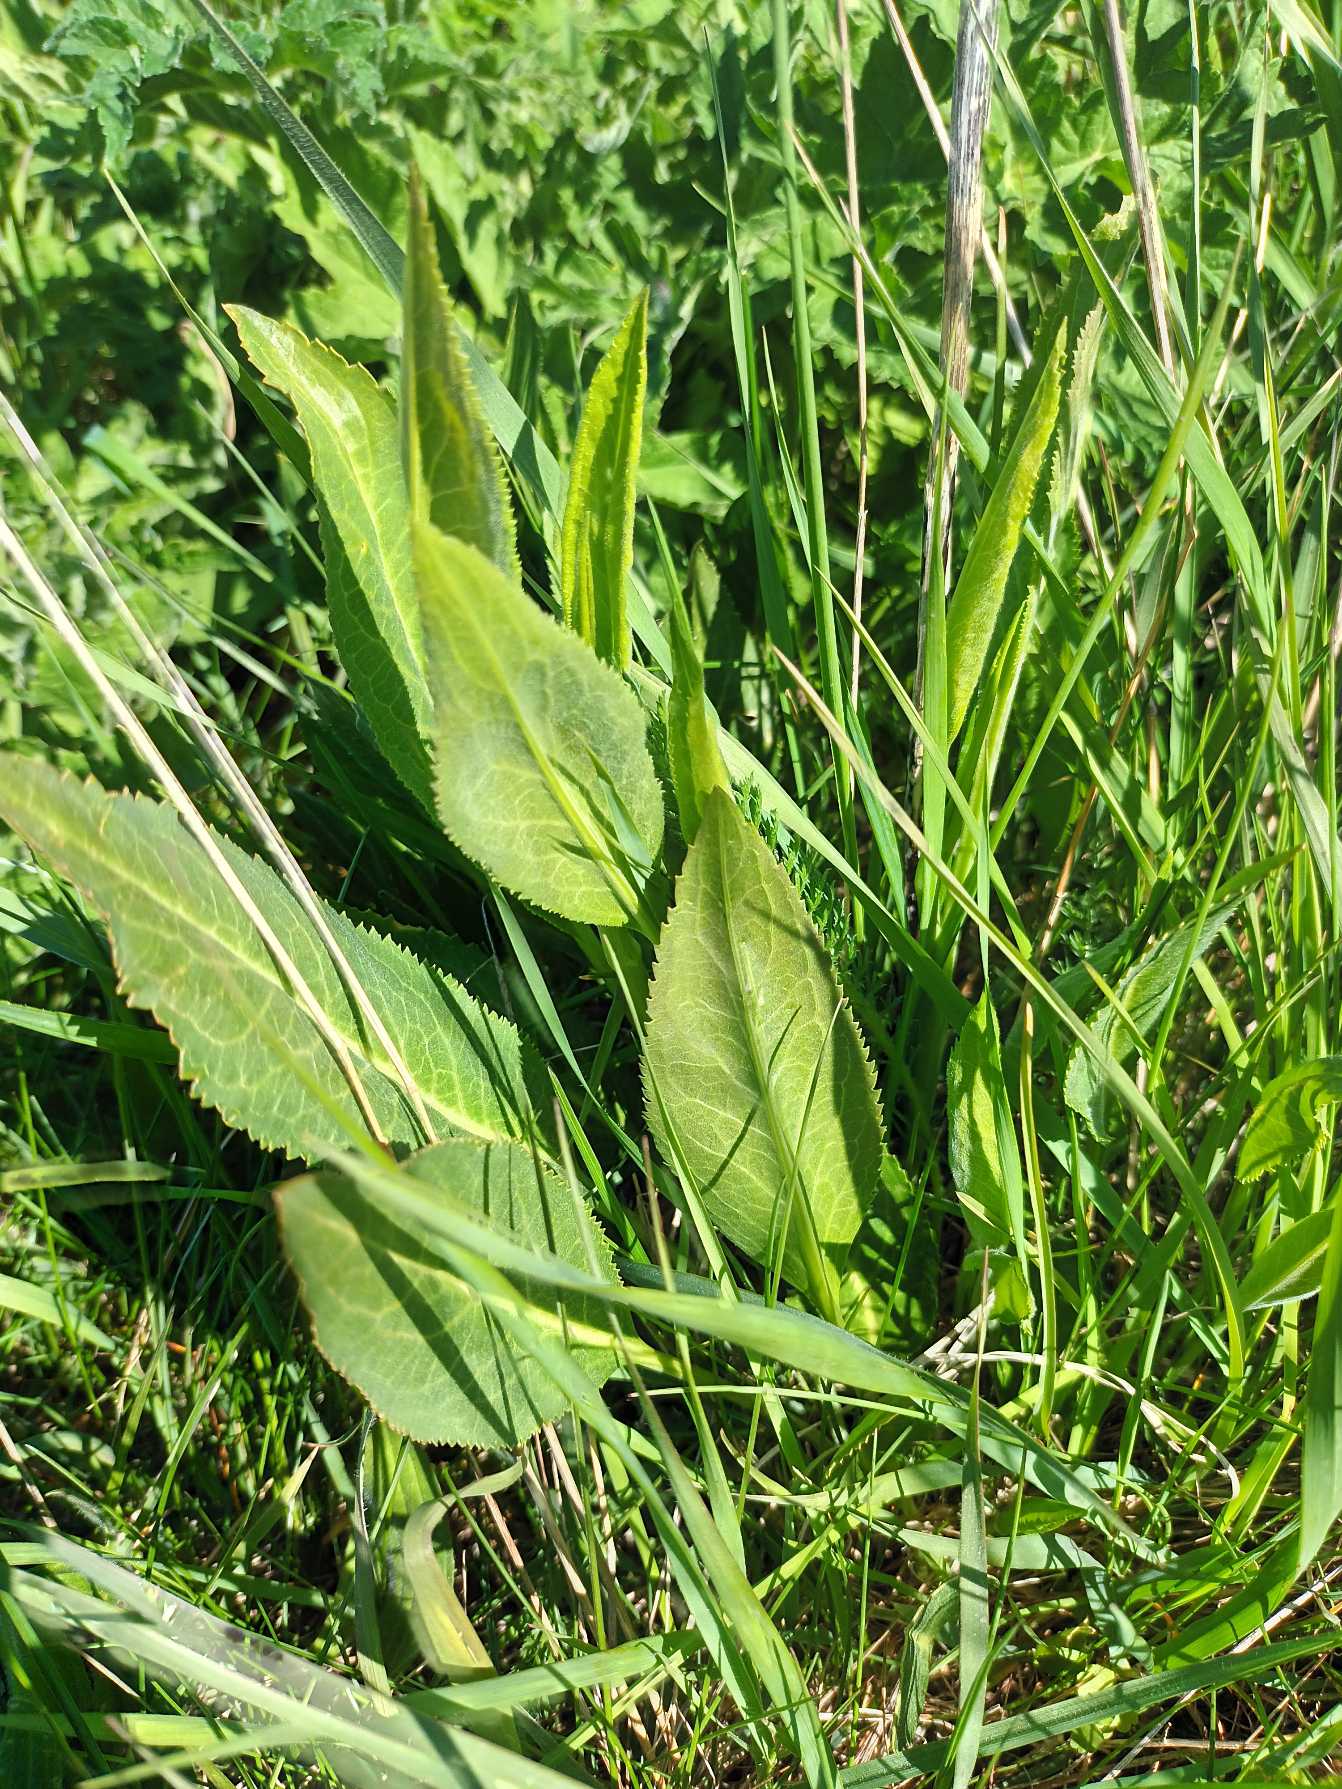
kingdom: Plantae
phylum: Tracheophyta
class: Magnoliopsida
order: Brassicales
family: Brassicaceae
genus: Lepidium
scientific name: Lepidium latifolium
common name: Strand-karse
